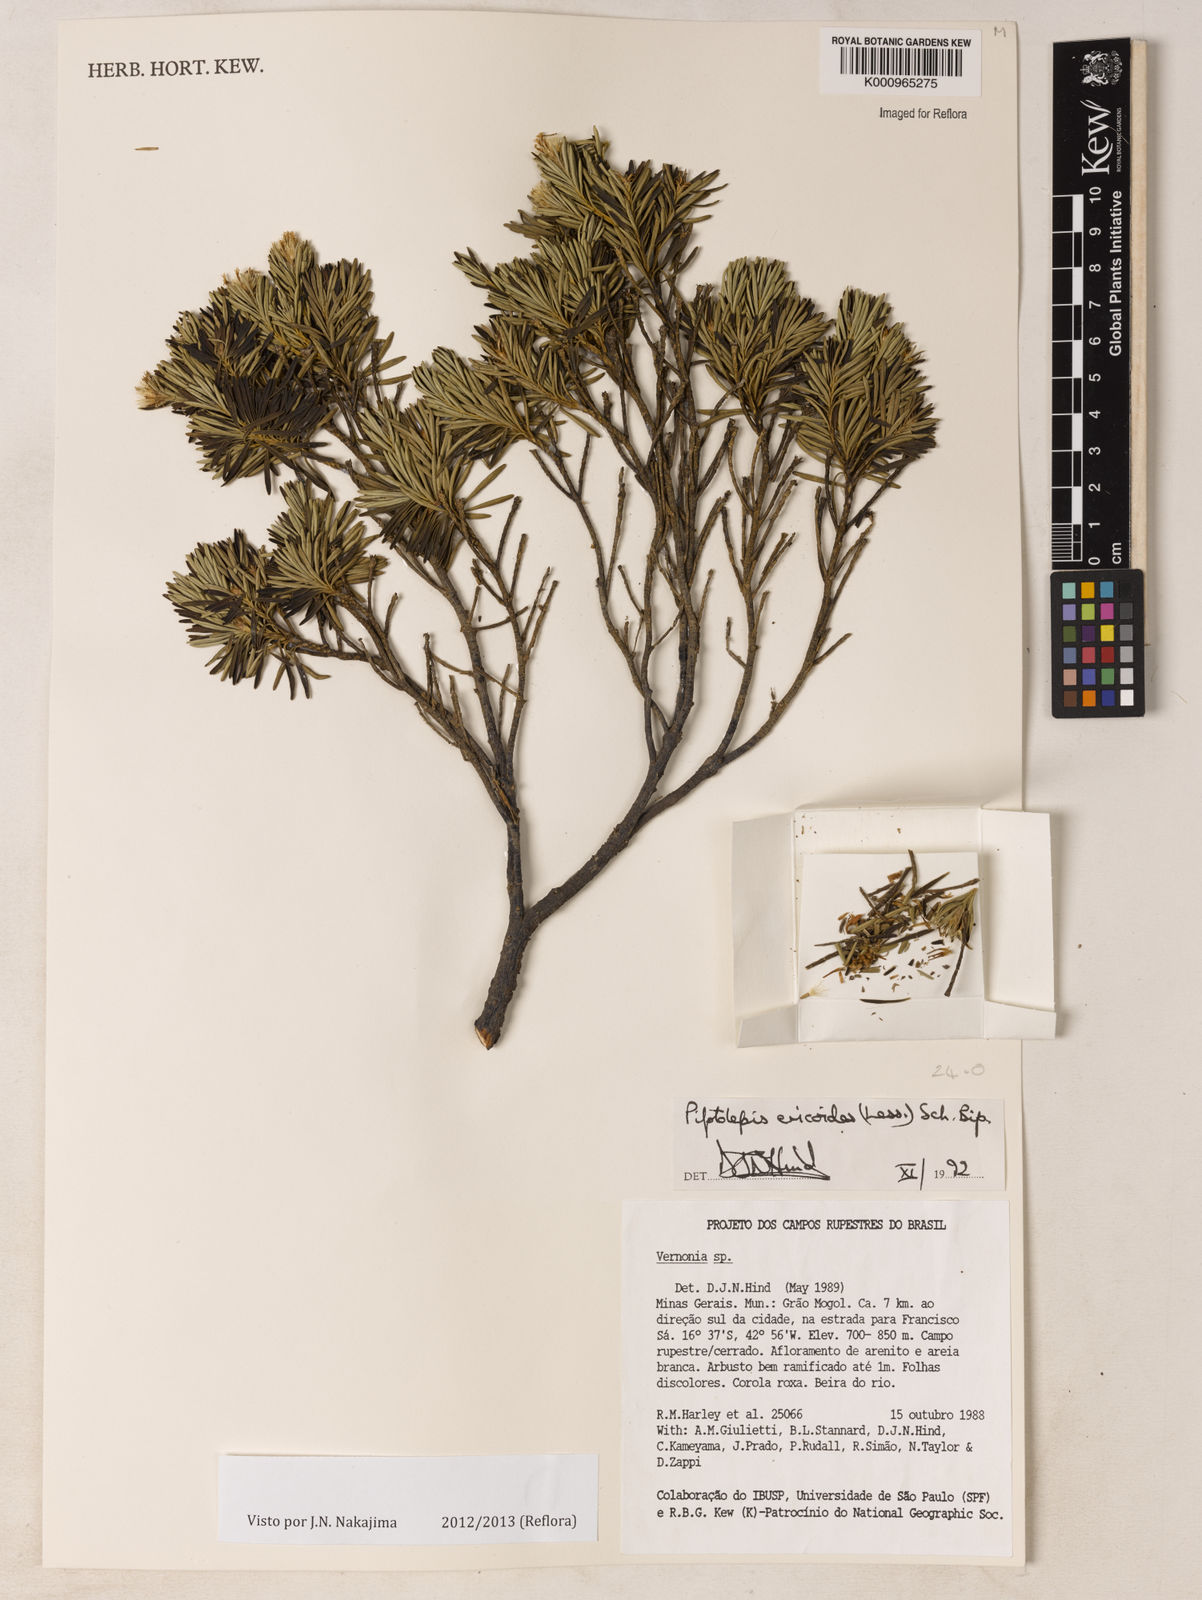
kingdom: Plantae
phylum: Tracheophyta
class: Magnoliopsida
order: Asterales
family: Asteraceae
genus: Piptolepis
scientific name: Piptolepis ericoides
